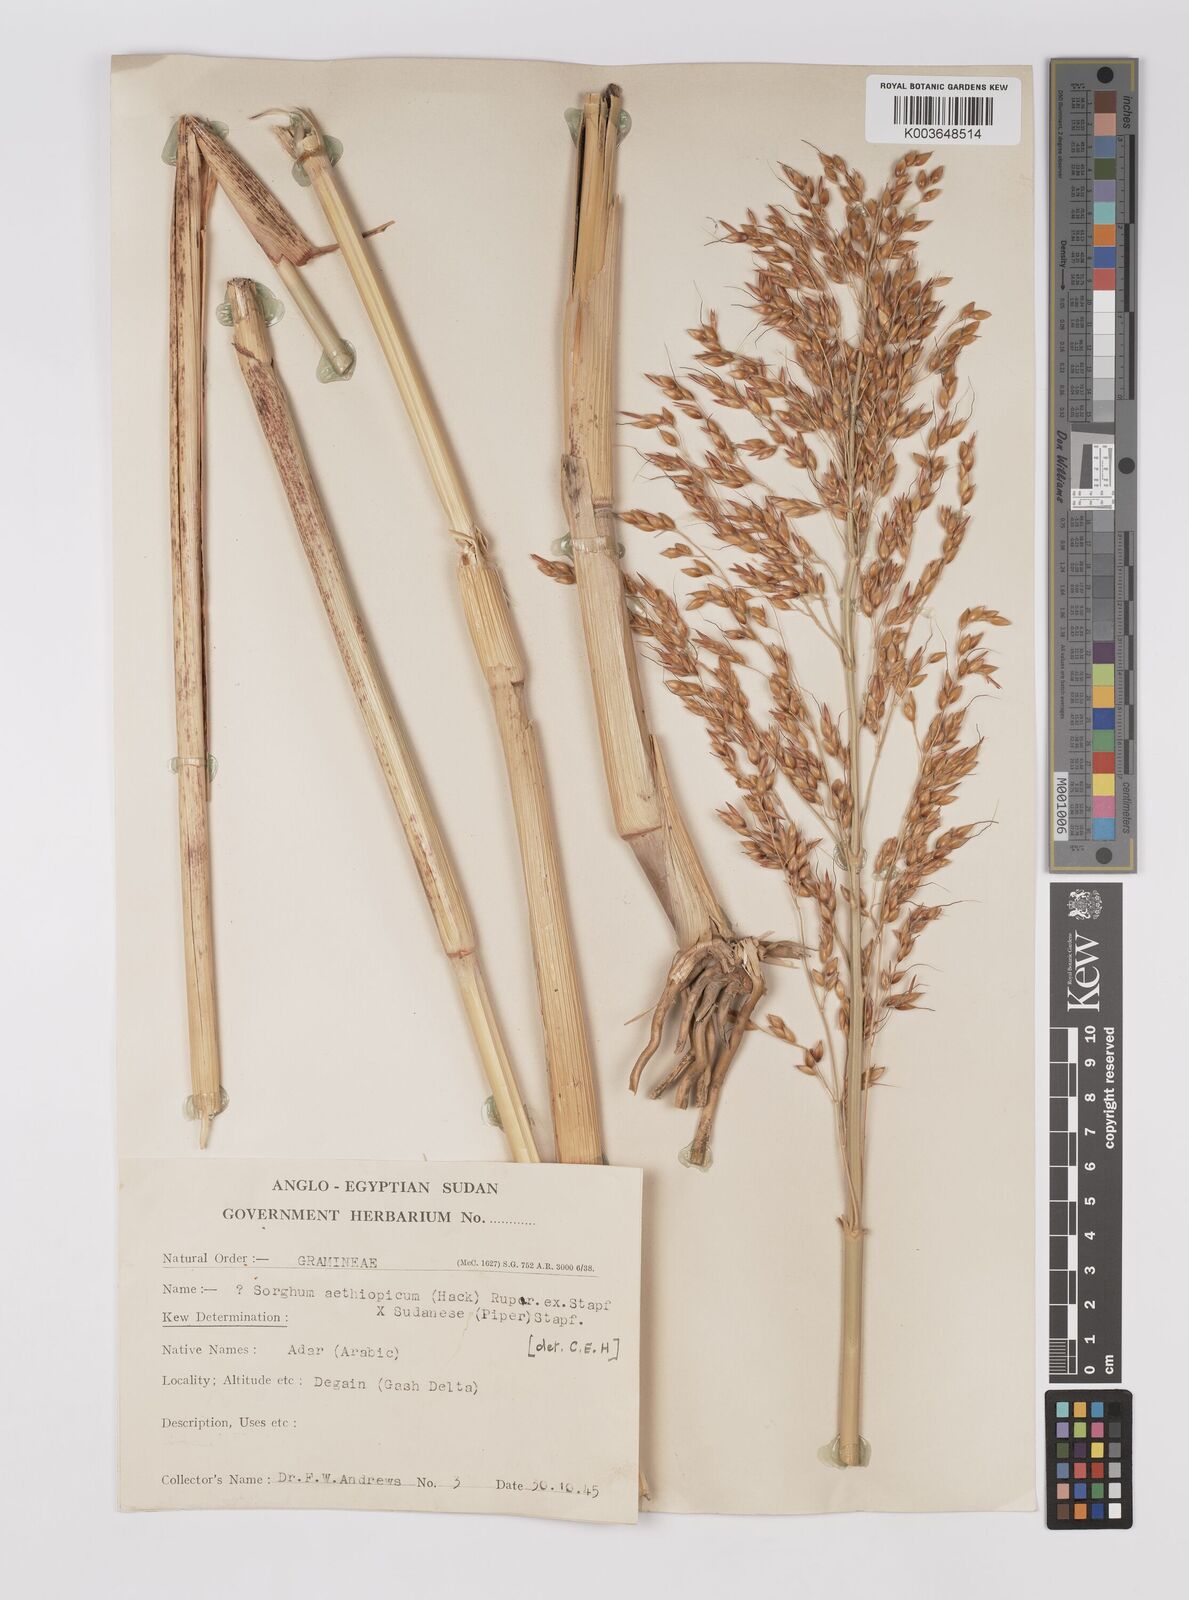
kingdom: Plantae
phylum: Tracheophyta
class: Liliopsida
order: Poales
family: Poaceae
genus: Sorghum
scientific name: Sorghum drummondii
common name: Sudangrass
